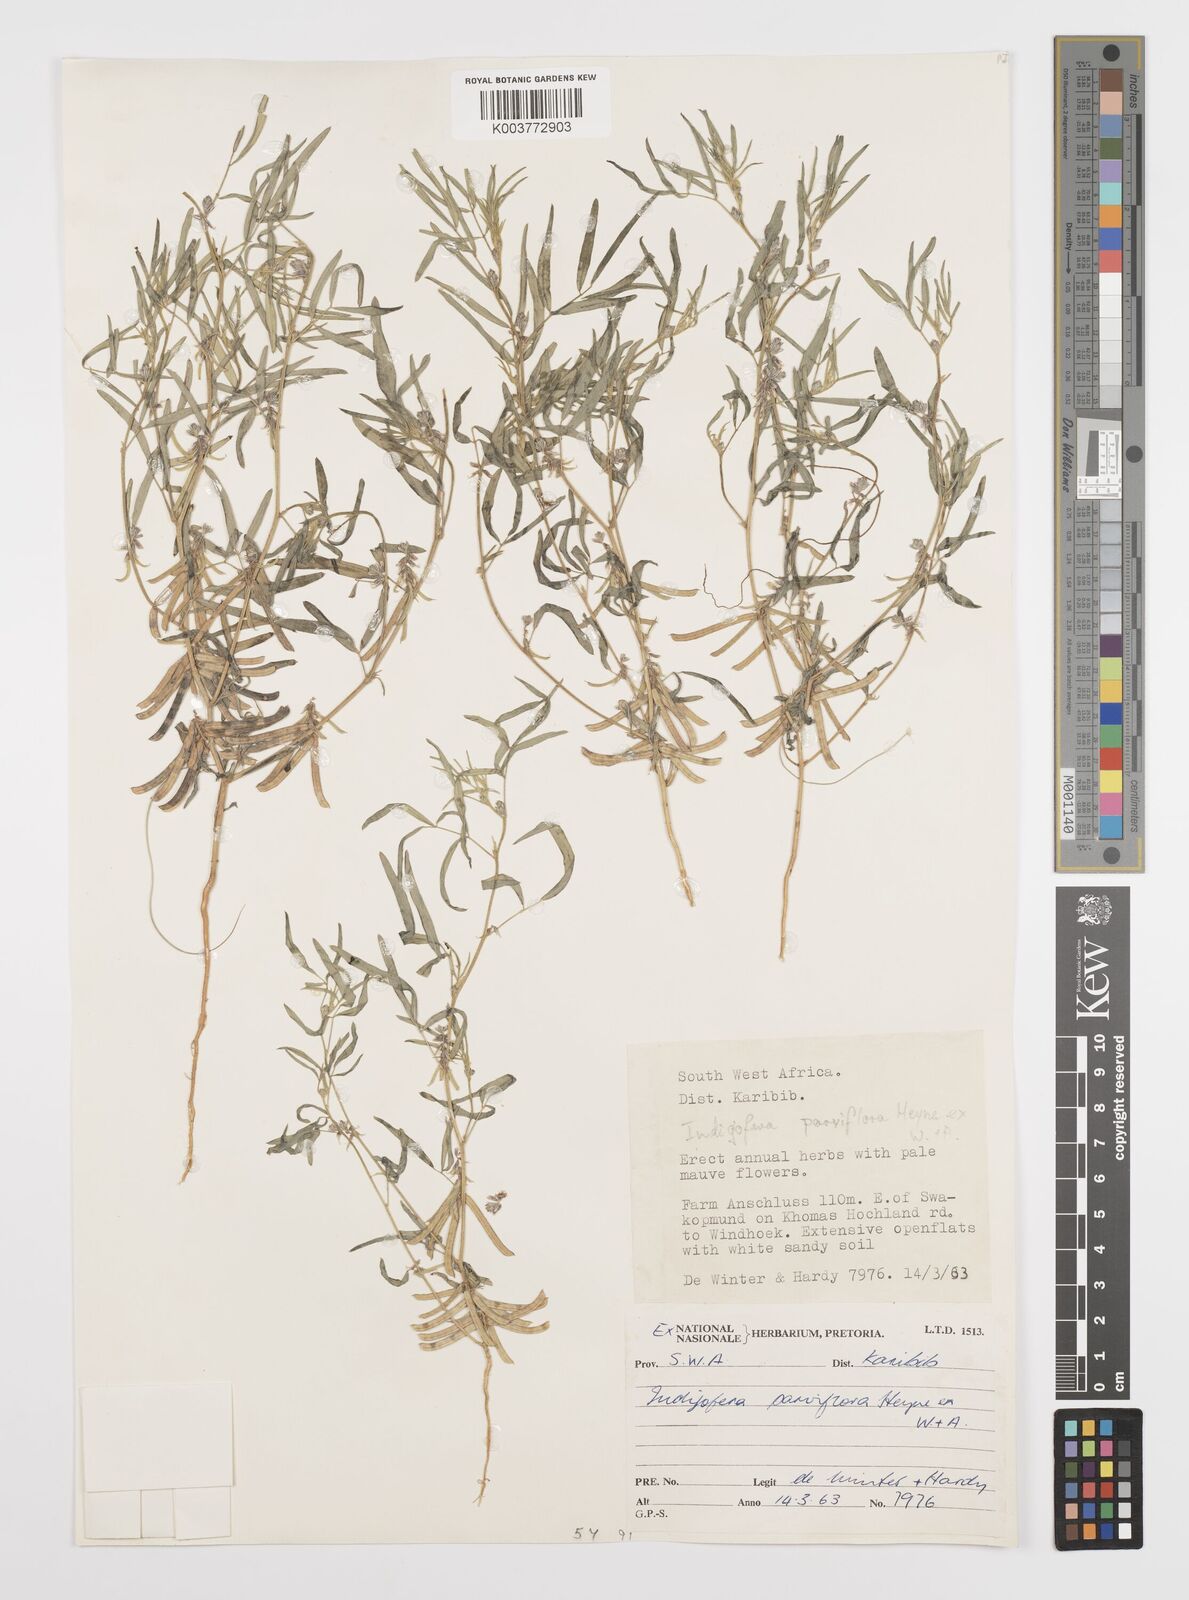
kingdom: Plantae
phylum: Tracheophyta
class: Magnoliopsida
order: Fabales
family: Fabaceae
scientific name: Fabaceae
